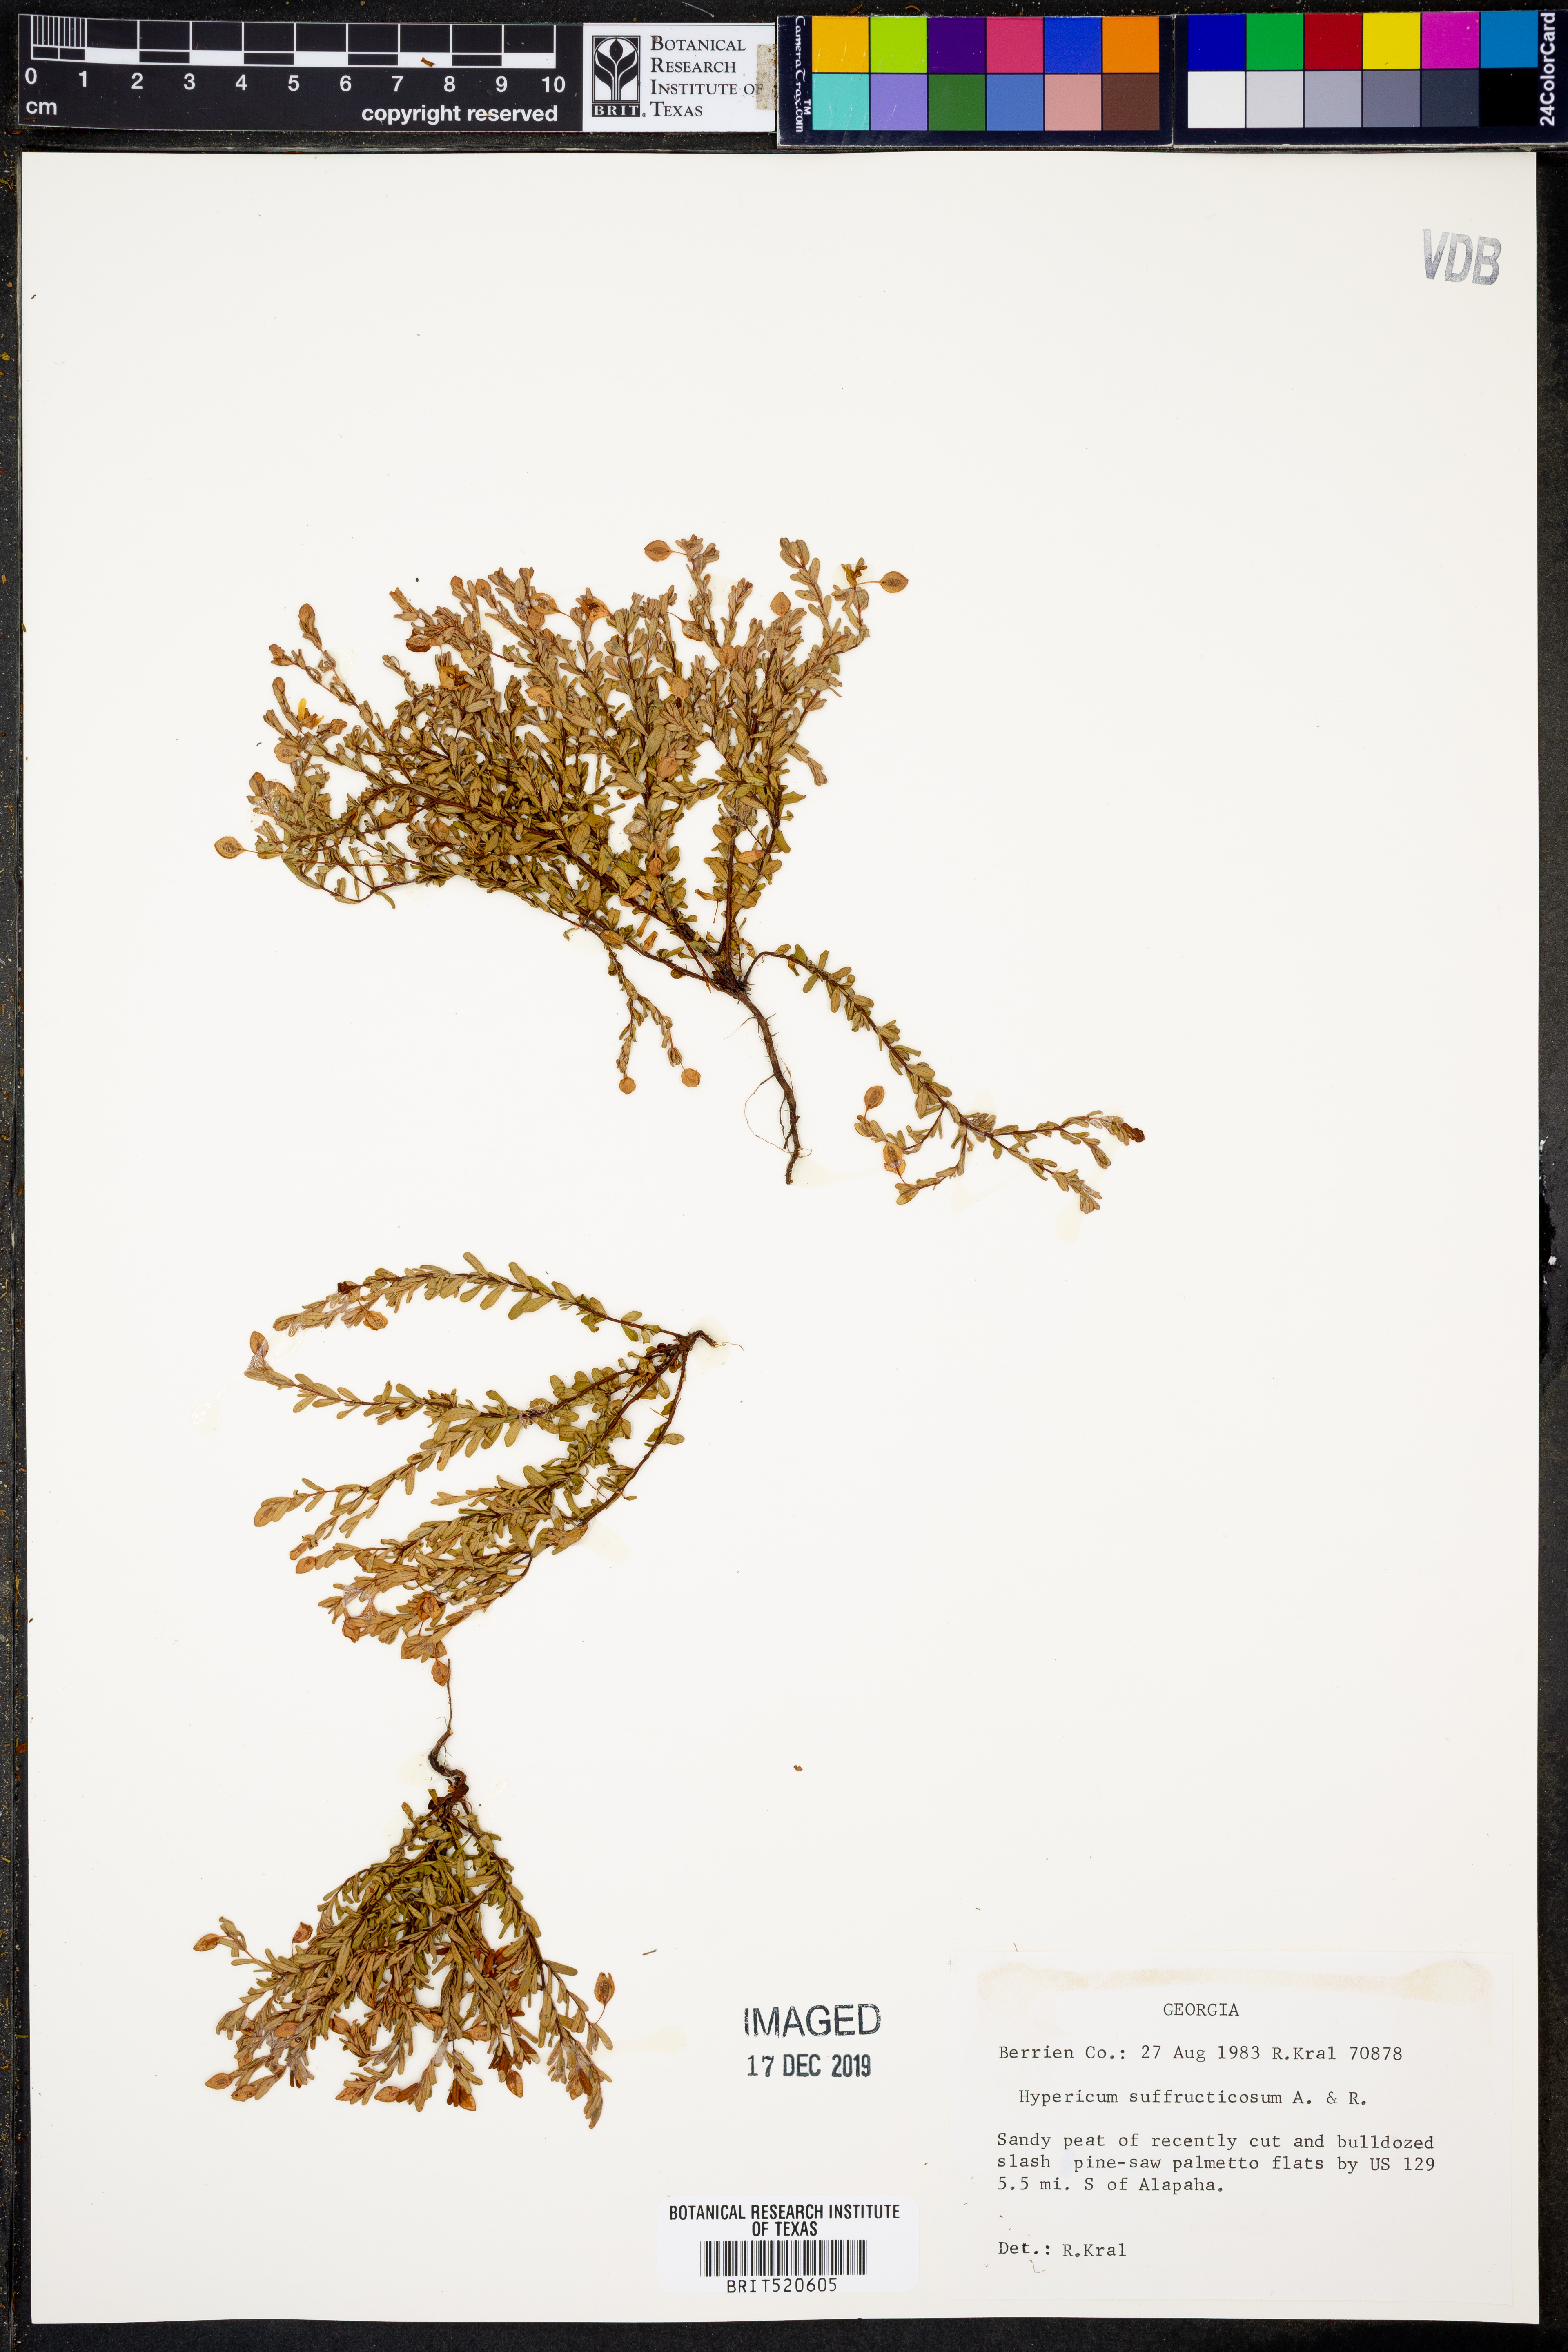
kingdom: Plantae
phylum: Tracheophyta
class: Magnoliopsida
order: Malpighiales
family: Hypericaceae
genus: Hypericum
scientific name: Hypericum suffruticosum
